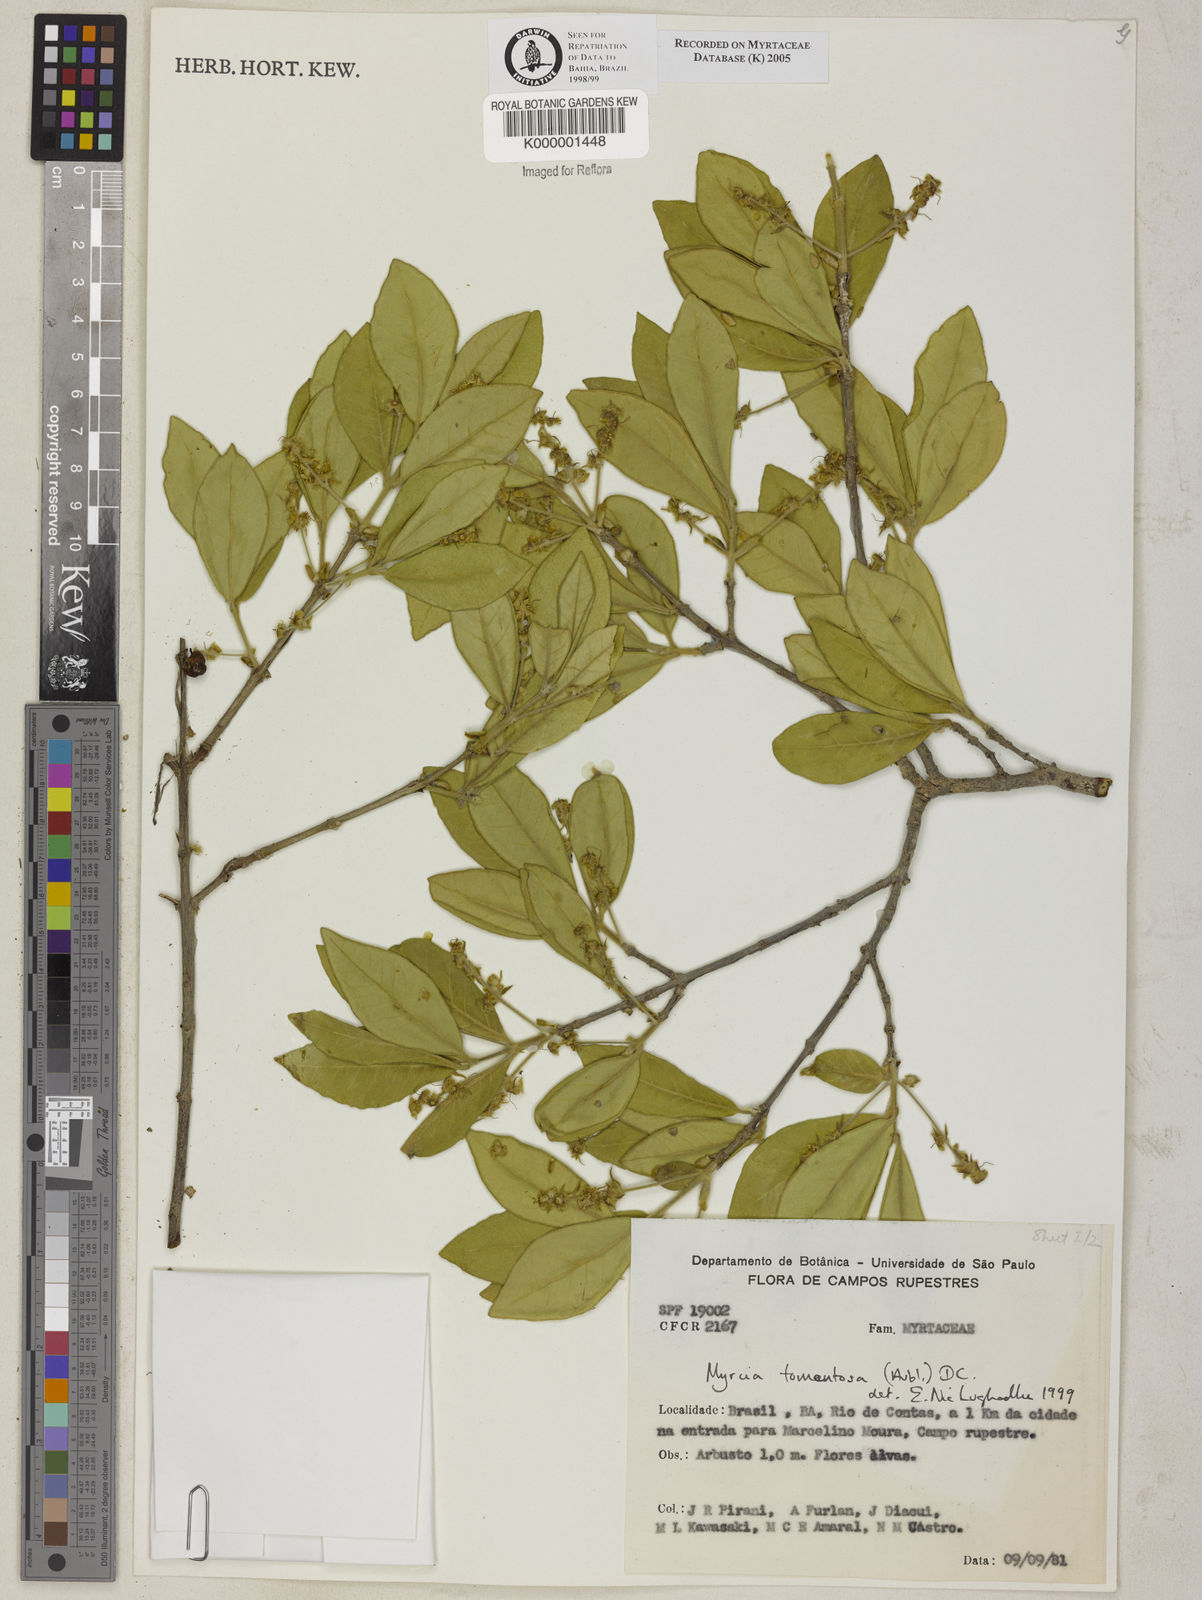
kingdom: Plantae
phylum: Tracheophyta
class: Magnoliopsida
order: Myrtales
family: Myrtaceae
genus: Myrcia
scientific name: Myrcia tomentosa
